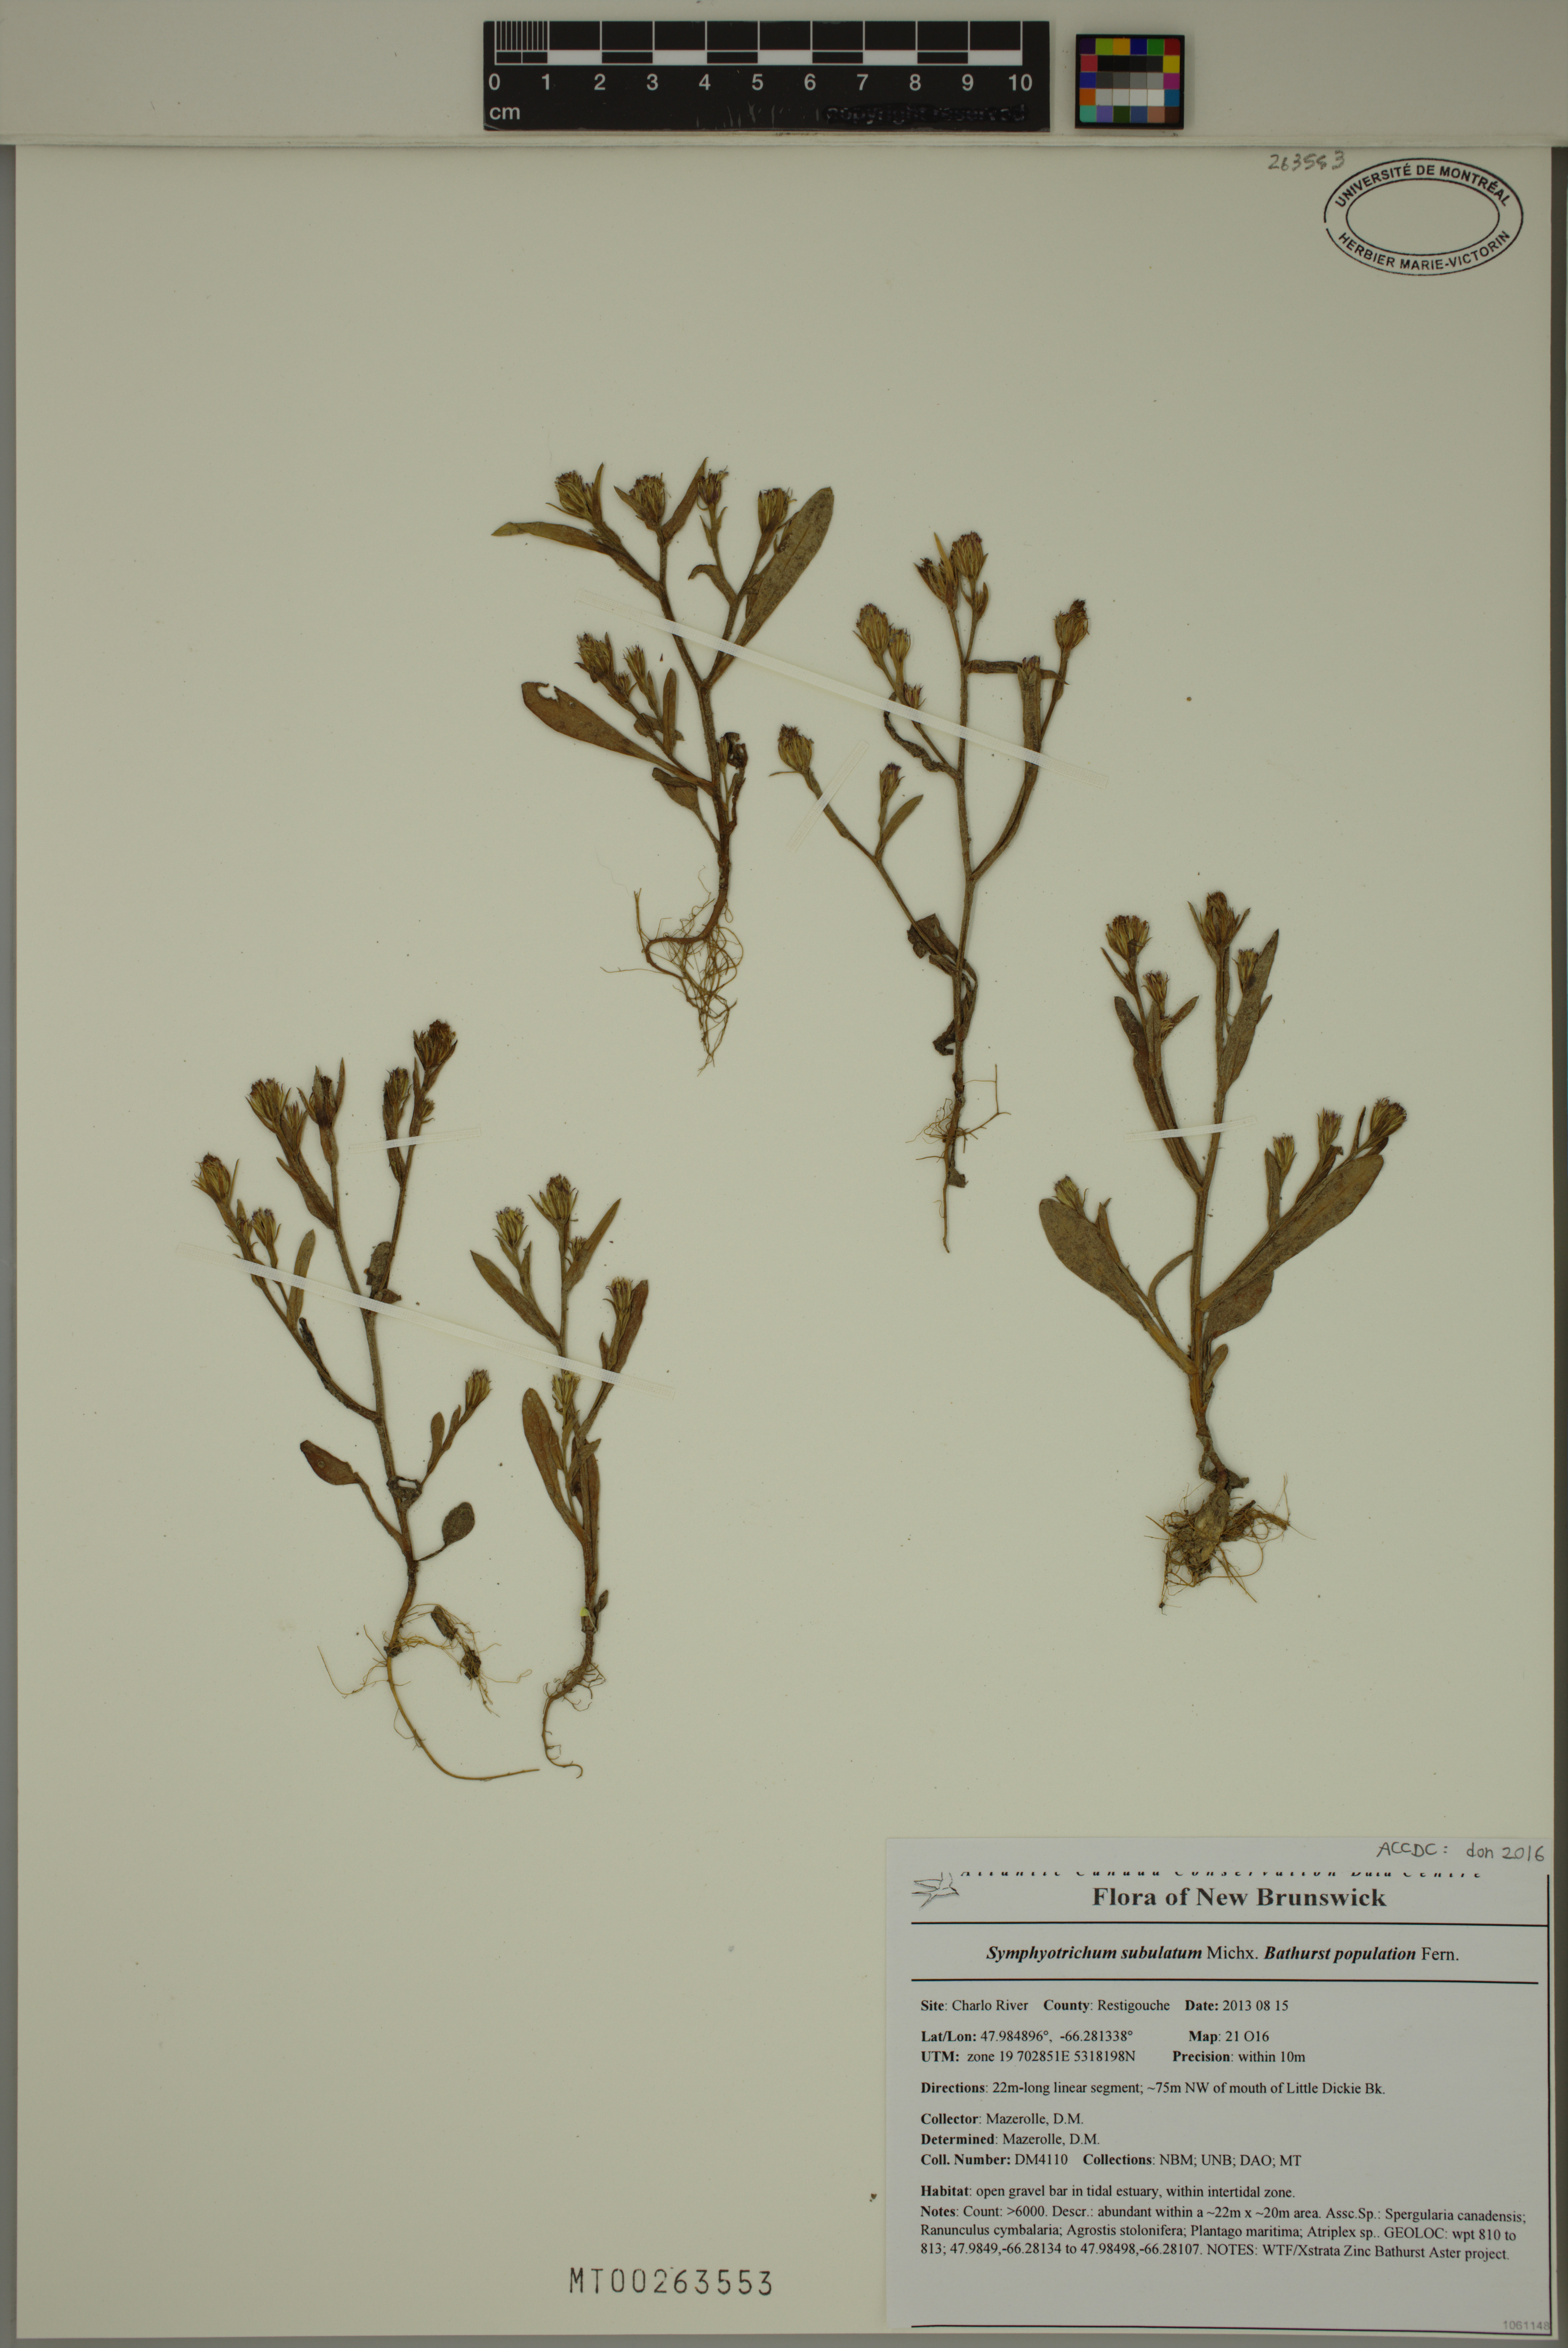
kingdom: Plantae
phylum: Tracheophyta
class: Magnoliopsida
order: Asterales
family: Asteraceae
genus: Symphyotrichum
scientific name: Symphyotrichum subulatum
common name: Annual saltmarsh aster
